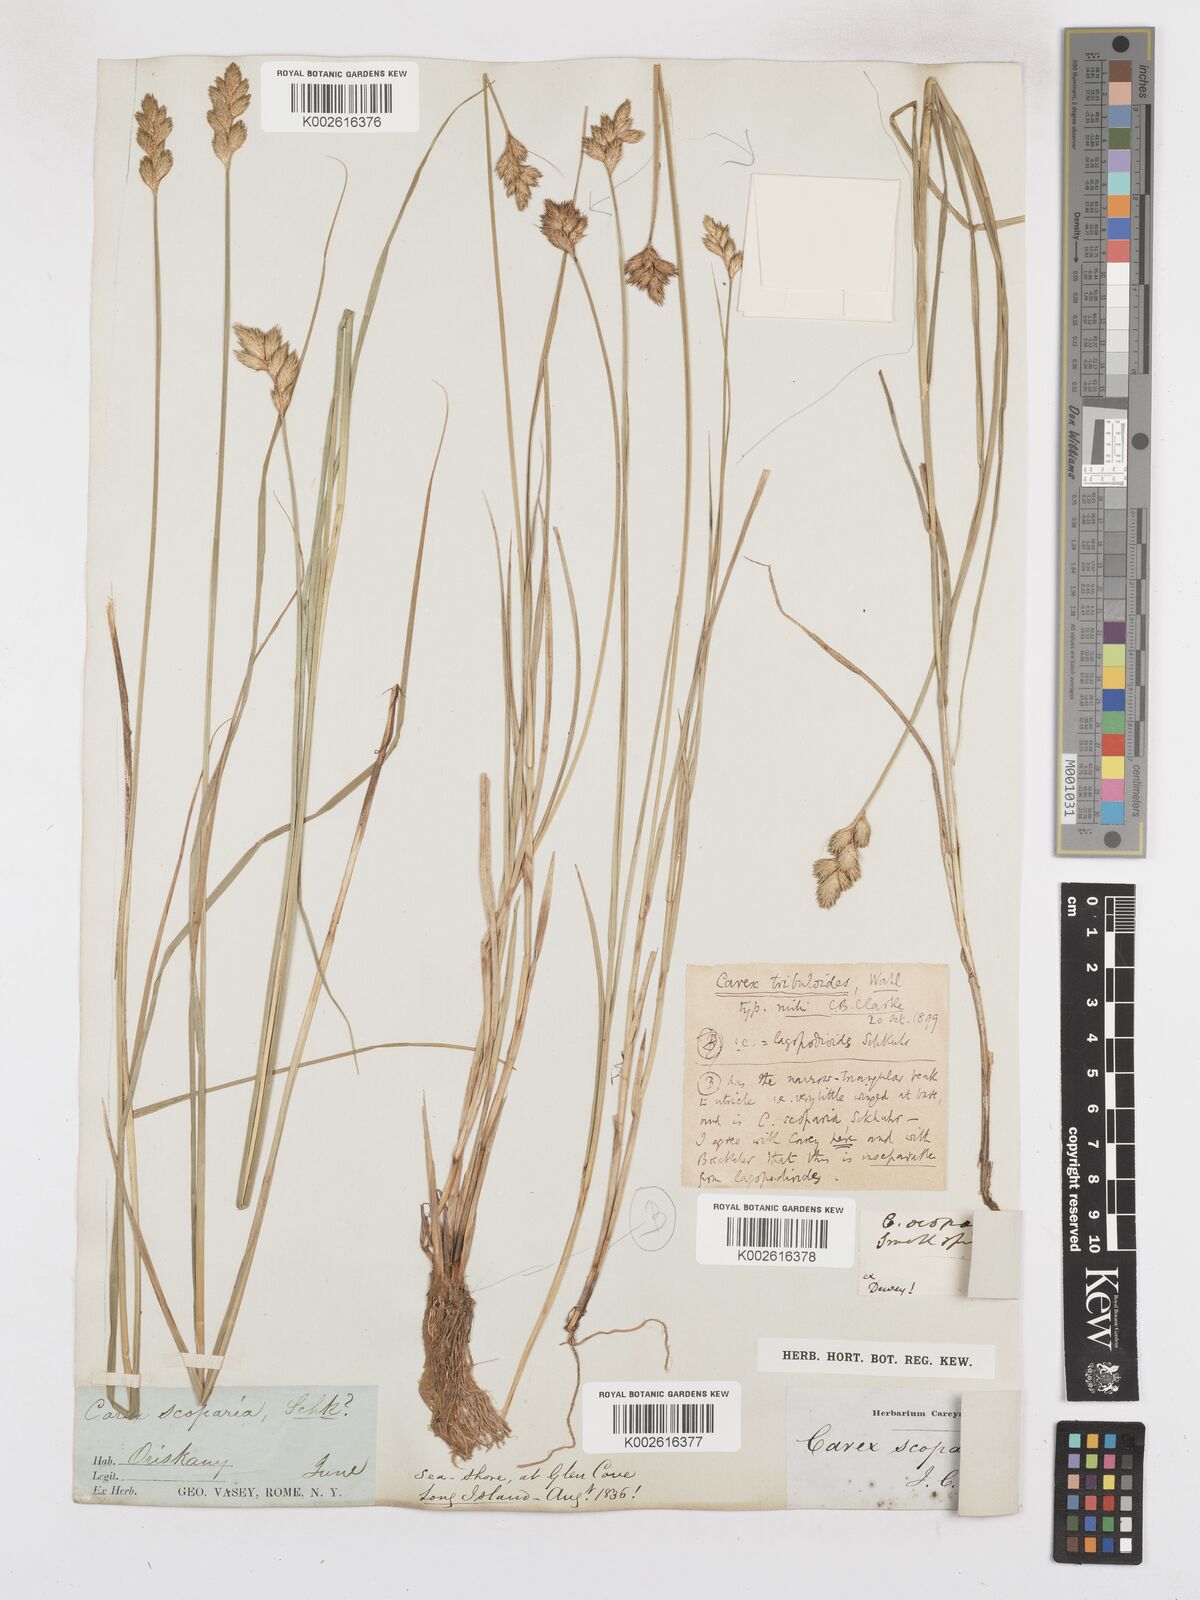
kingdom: Plantae
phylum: Tracheophyta
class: Liliopsida
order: Poales
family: Cyperaceae
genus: Carex
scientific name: Carex tribuloides
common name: Blunt broom sedge
